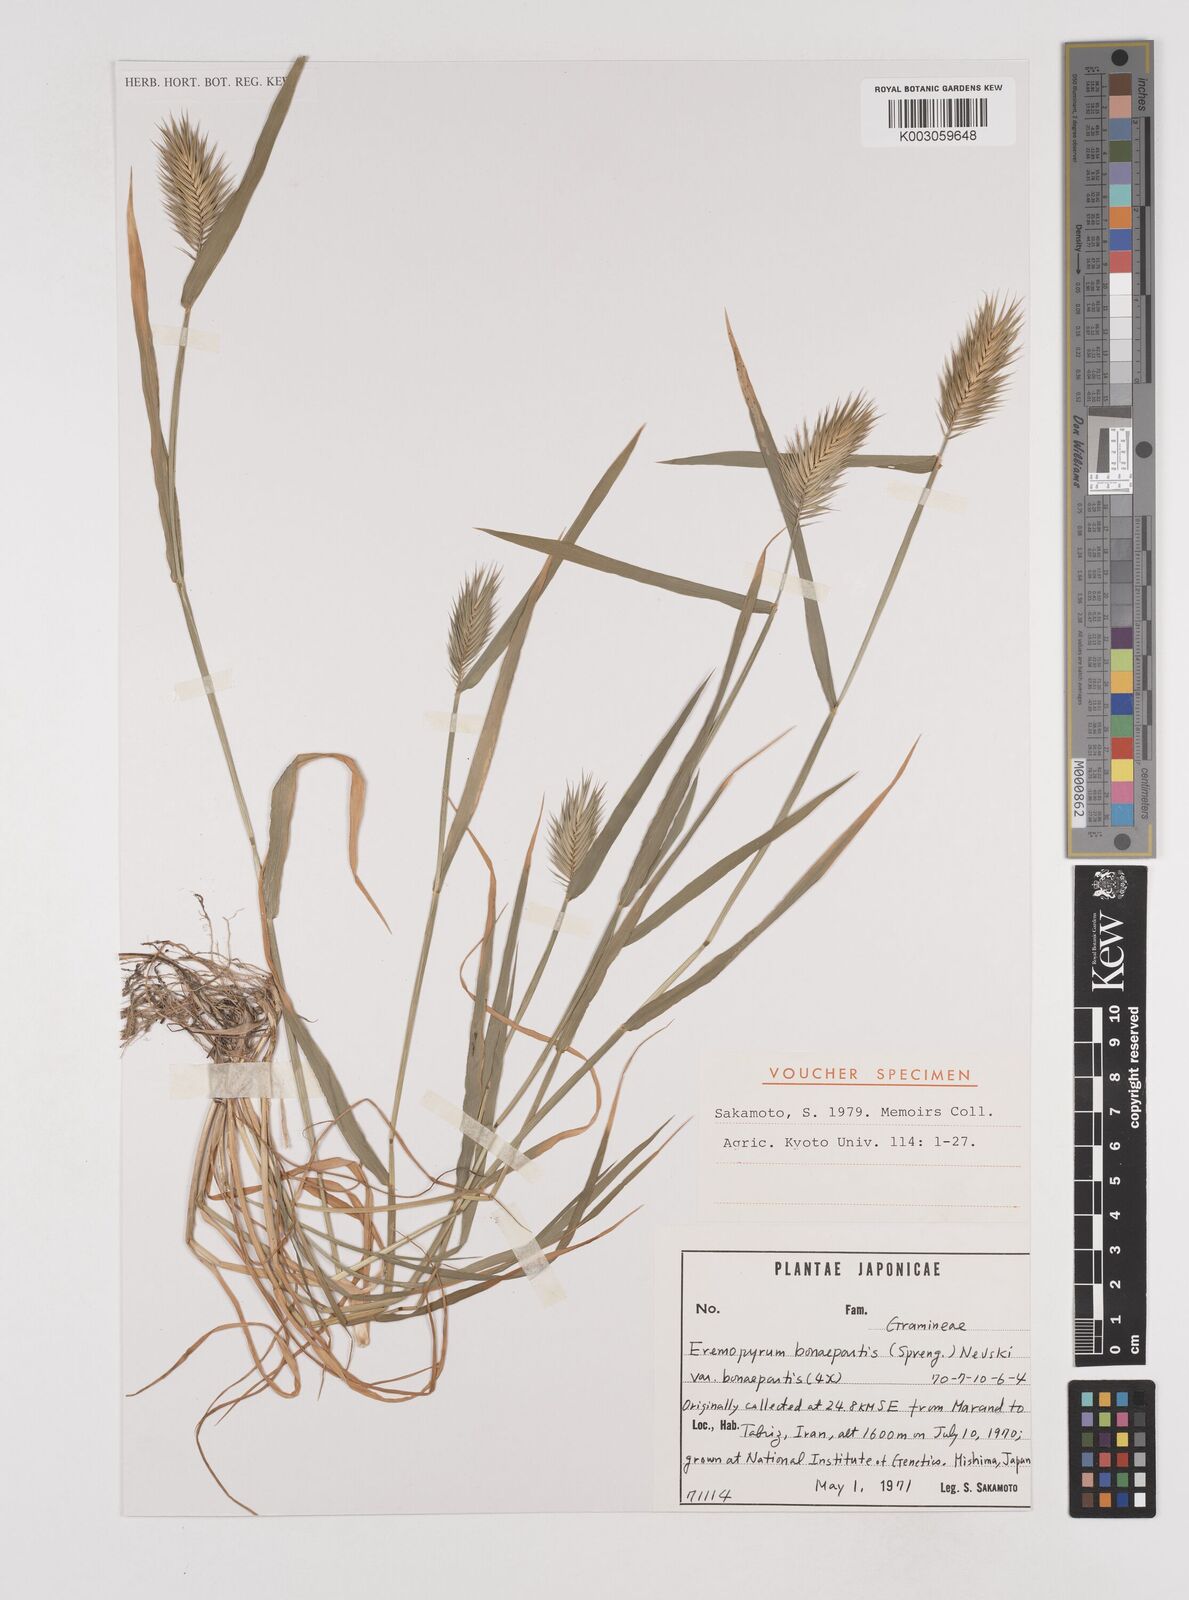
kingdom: Plantae
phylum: Tracheophyta
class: Liliopsida
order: Poales
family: Poaceae
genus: Eremopyrum
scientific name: Eremopyrum bonaepartis
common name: Tapertip false wheatgrass
